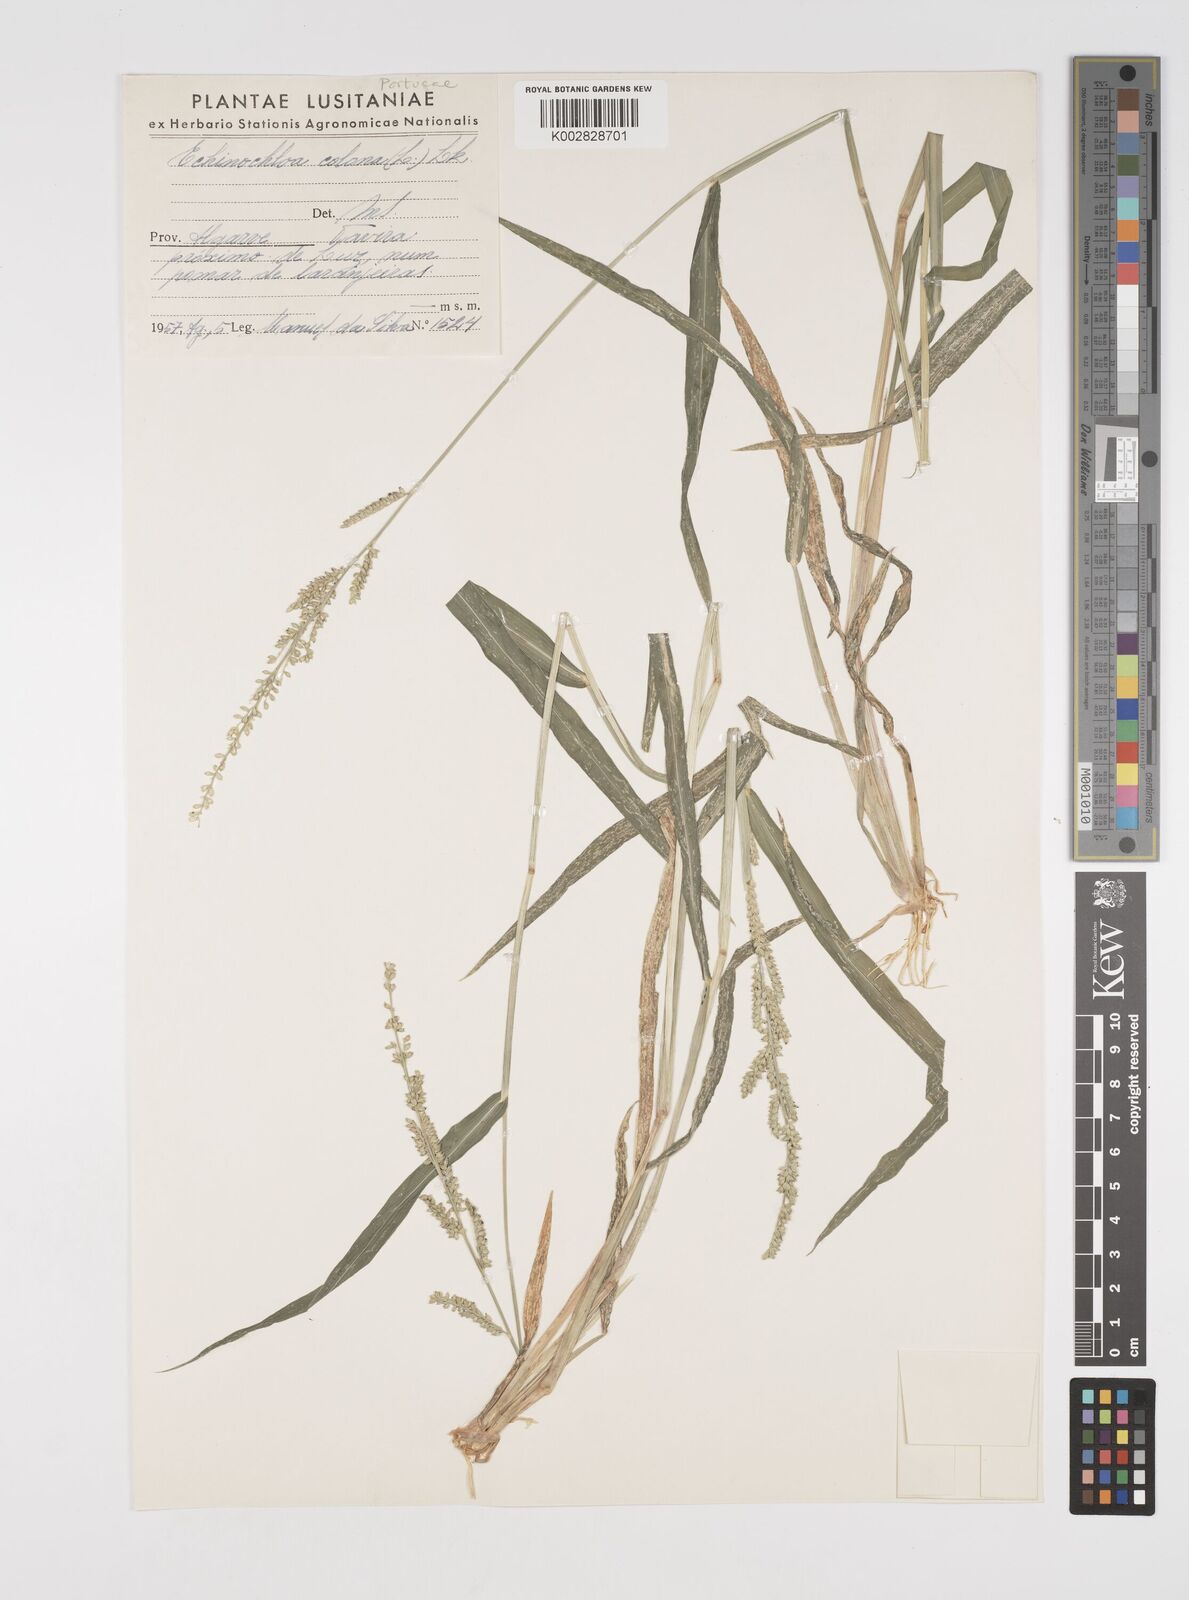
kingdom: Plantae
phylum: Tracheophyta
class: Liliopsida
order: Poales
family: Poaceae
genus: Echinochloa
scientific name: Echinochloa colonum
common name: Jungle rice
